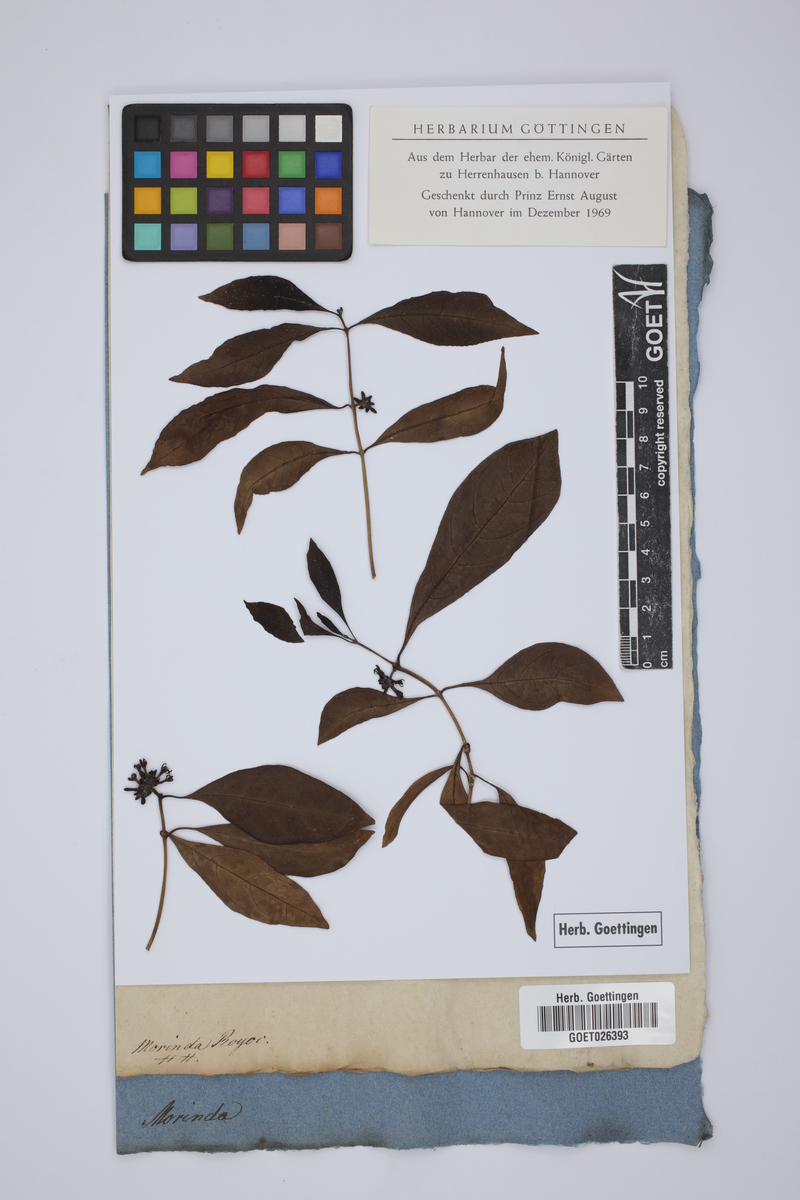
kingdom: Plantae
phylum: Tracheophyta
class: Magnoliopsida
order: Gentianales
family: Rubiaceae
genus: Morinda
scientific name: Morinda royoc
